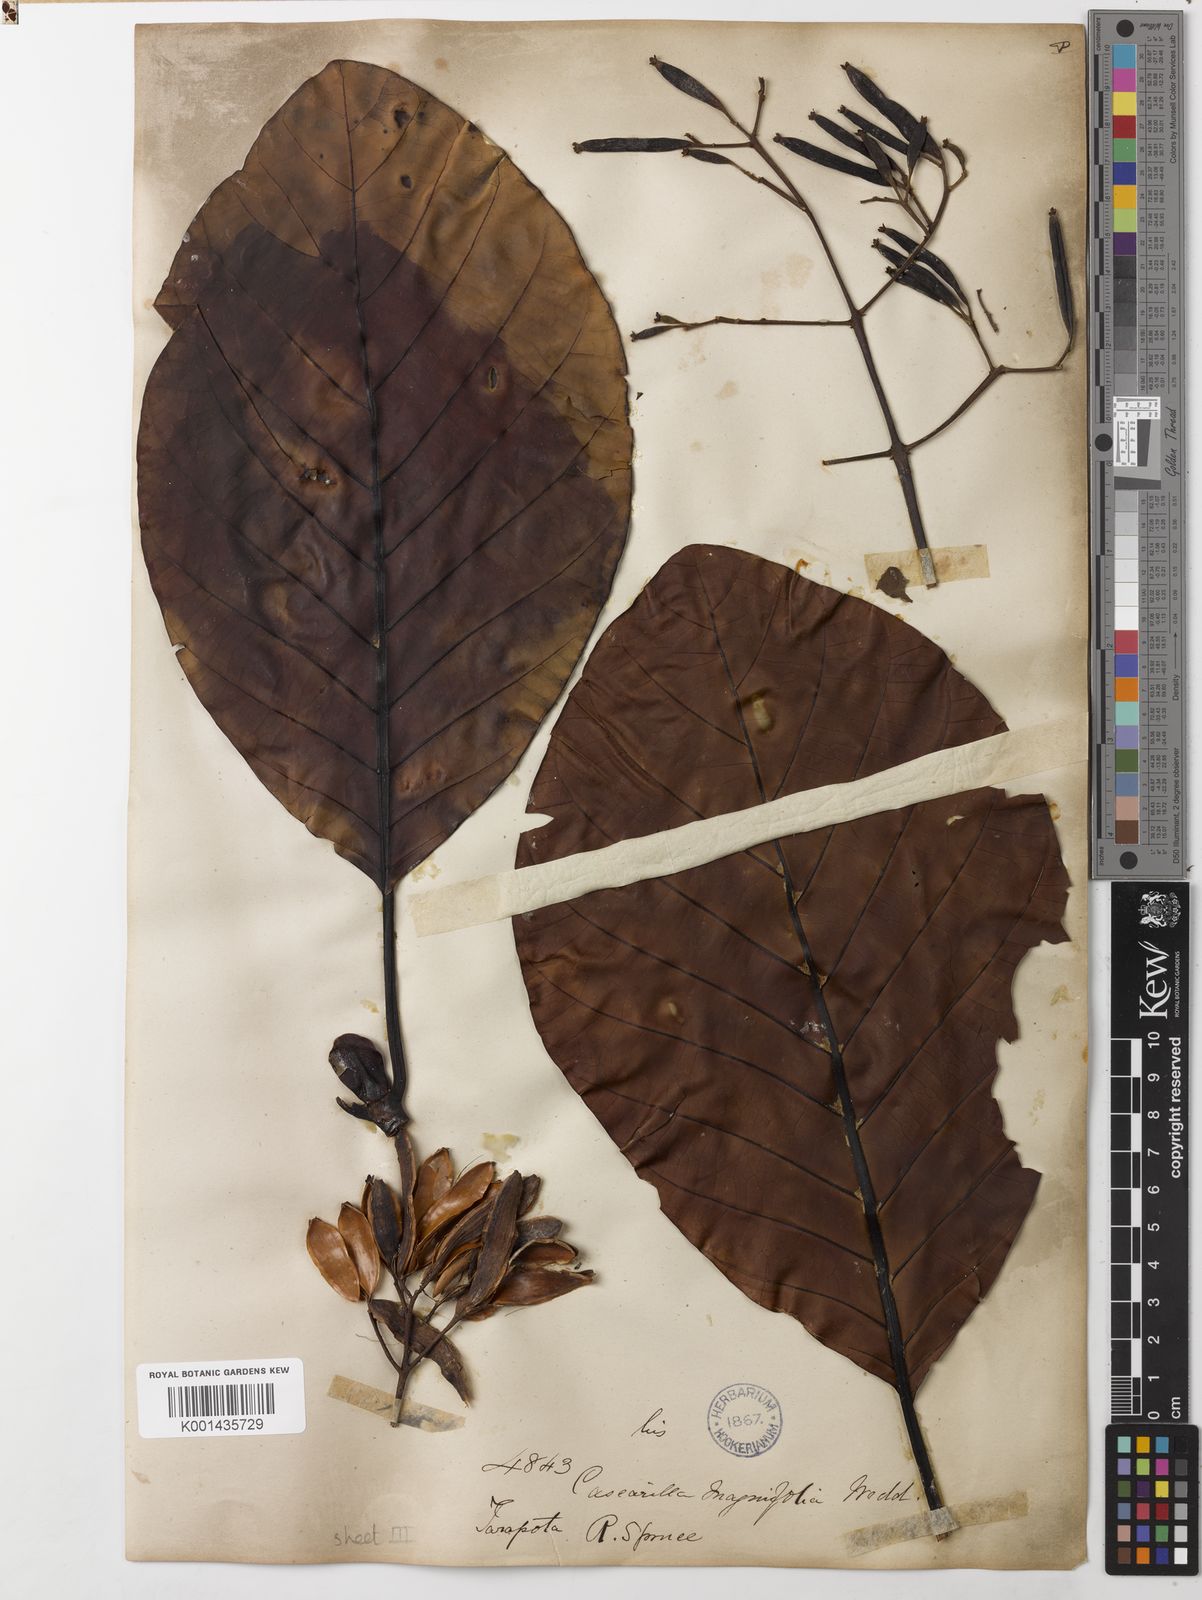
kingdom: Plantae
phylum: Tracheophyta
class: Magnoliopsida
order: Gentianales
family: Rubiaceae
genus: Ladenbergia
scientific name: Ladenbergia oblongifolia
